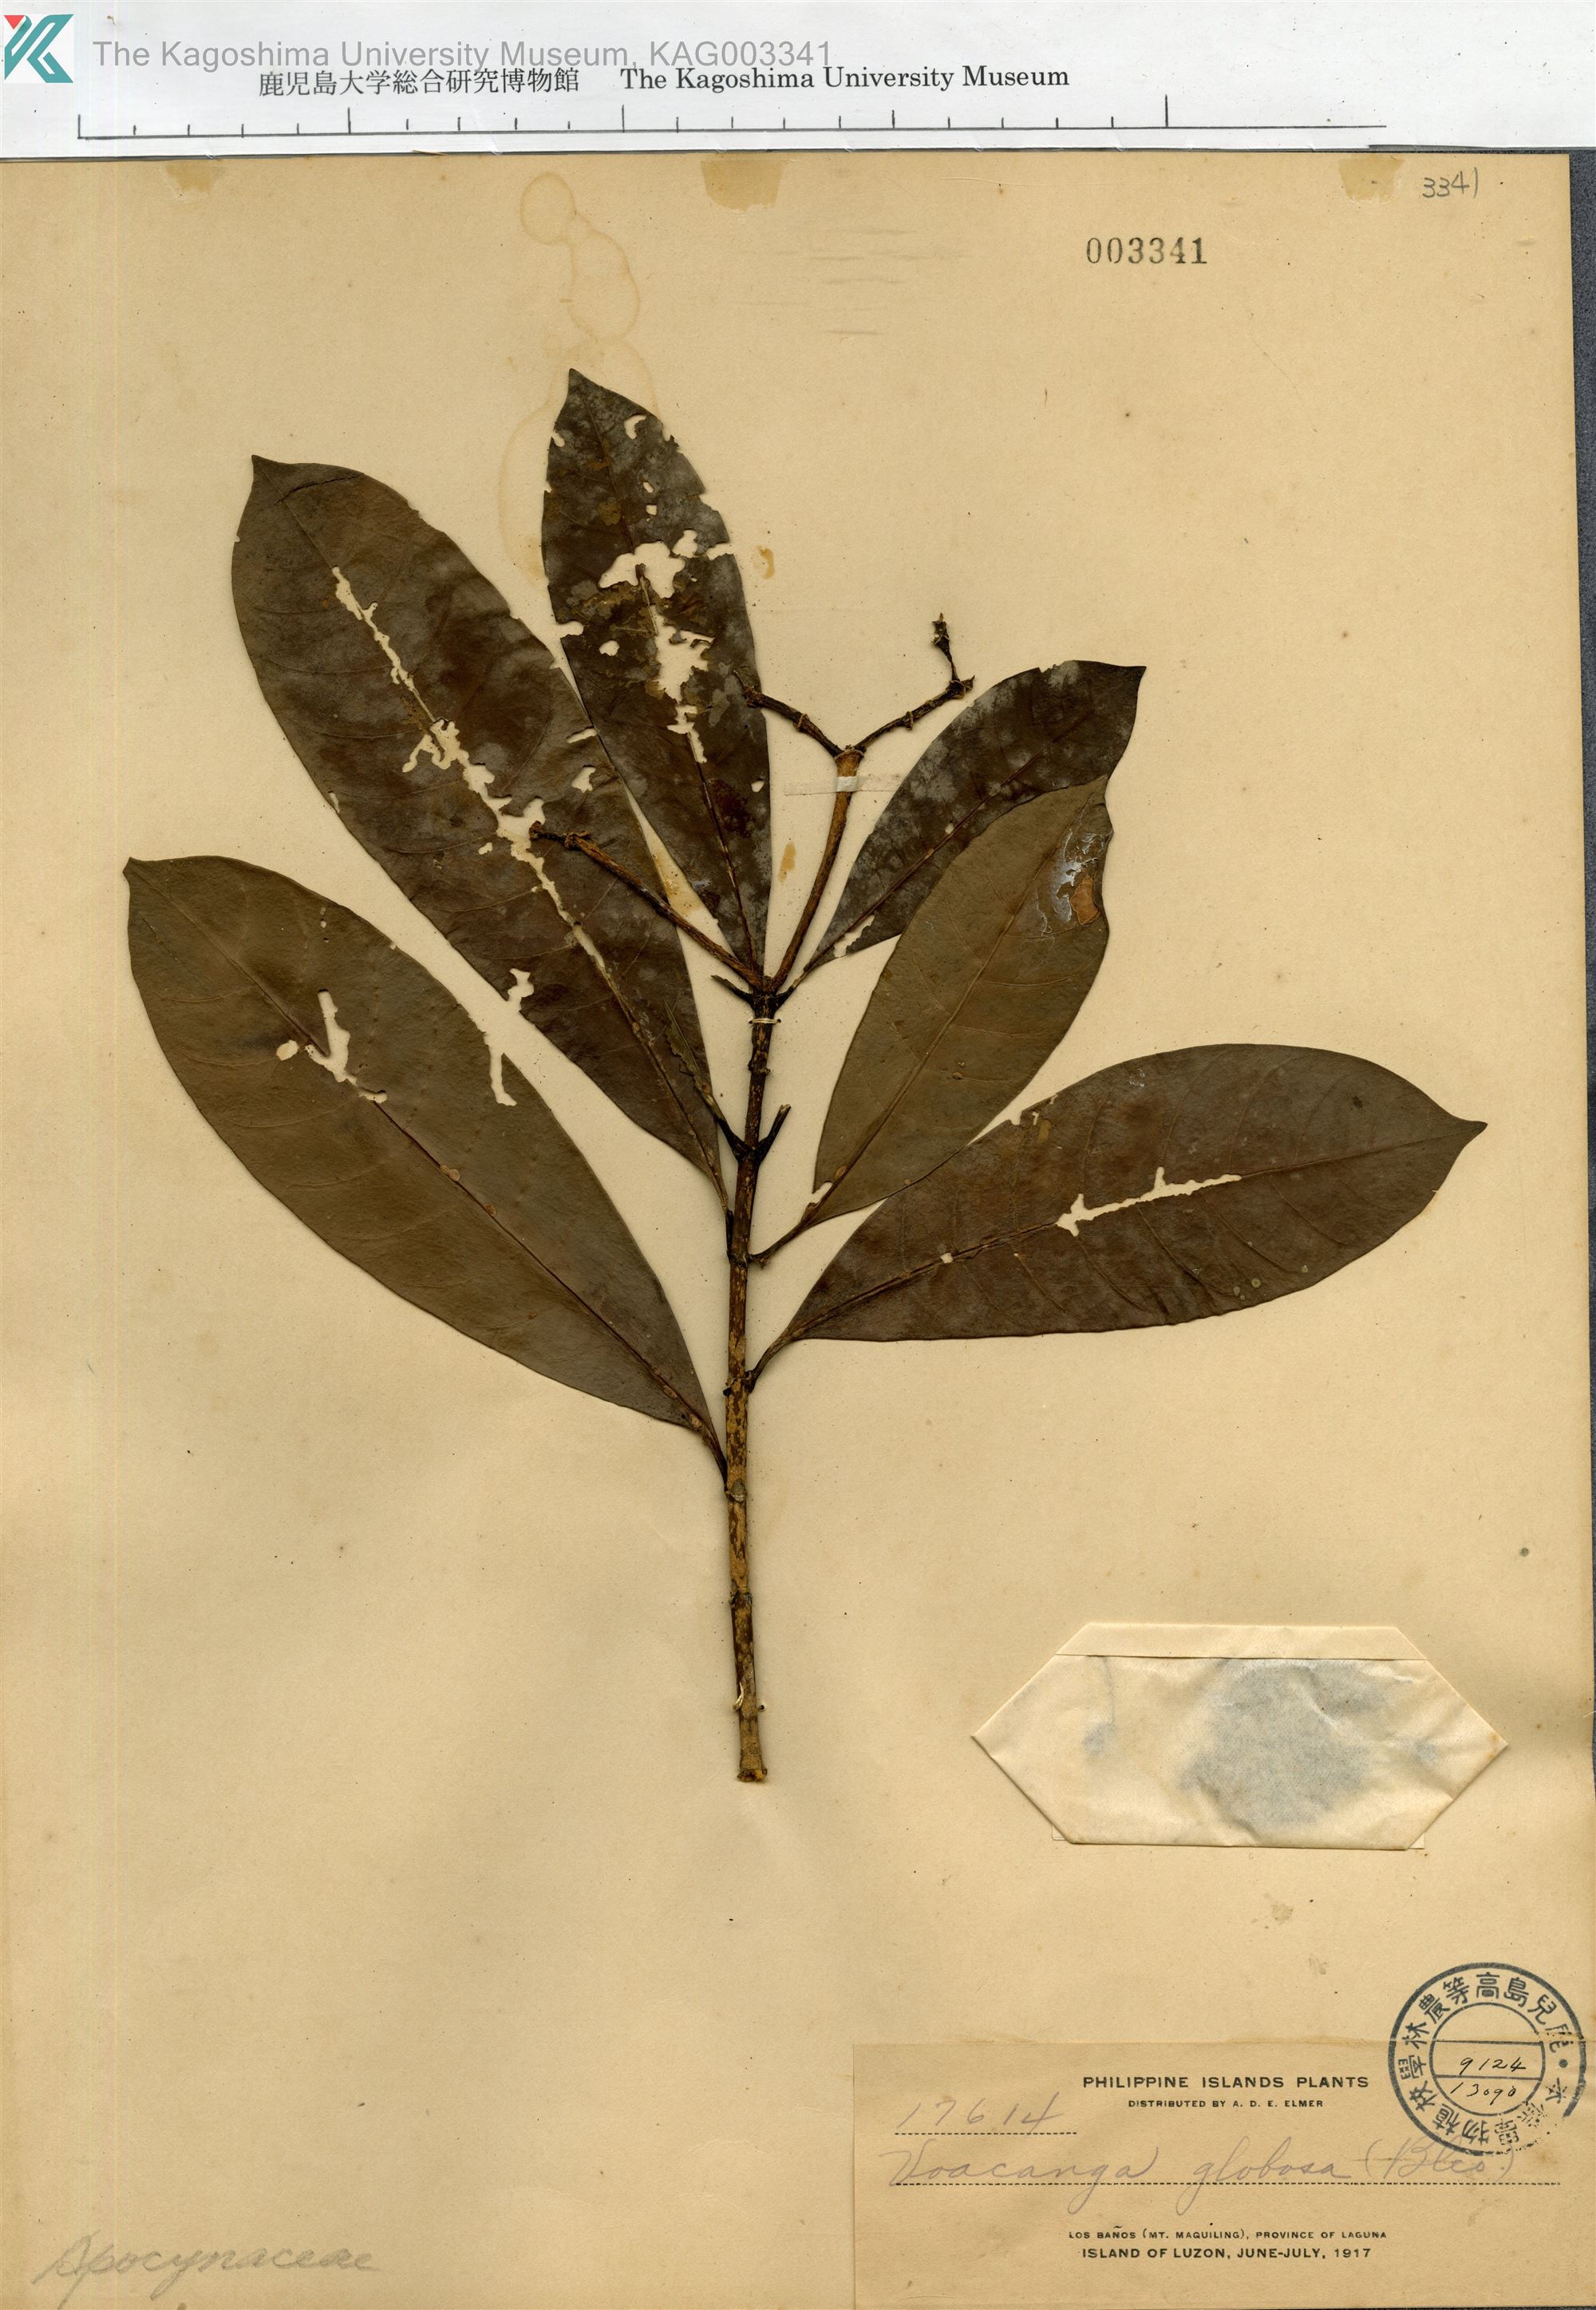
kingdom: Plantae
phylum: Tracheophyta
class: Magnoliopsida
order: Gentianales
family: Apocynaceae
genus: Voacanga
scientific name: Voacanga globosa
